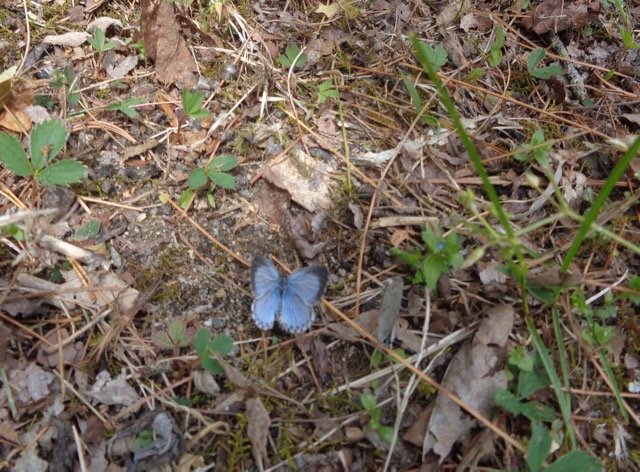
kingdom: Animalia
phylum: Arthropoda
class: Insecta
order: Lepidoptera
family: Lycaenidae
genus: Celastrina
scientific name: Celastrina lucia
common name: Northern Spring Azure
